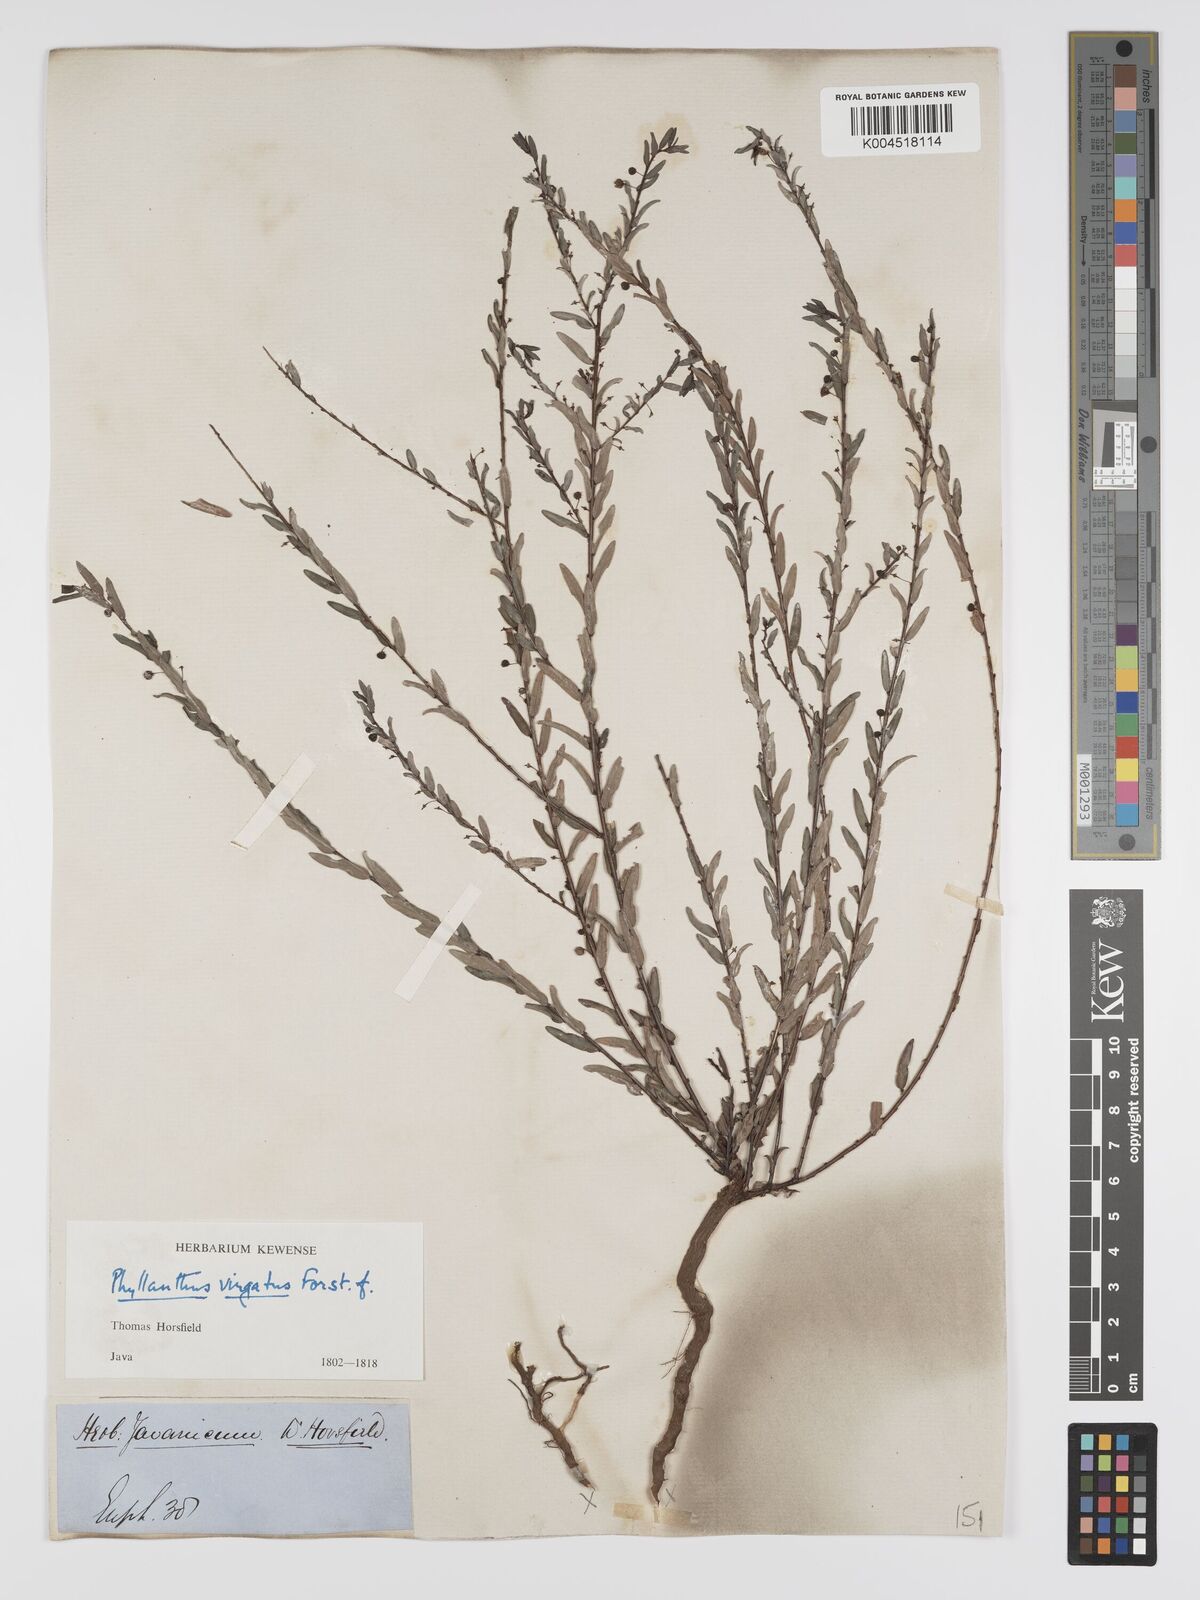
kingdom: Plantae
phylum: Tracheophyta
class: Magnoliopsida
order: Malpighiales
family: Phyllanthaceae
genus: Phyllanthus
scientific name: Phyllanthus virgatus
